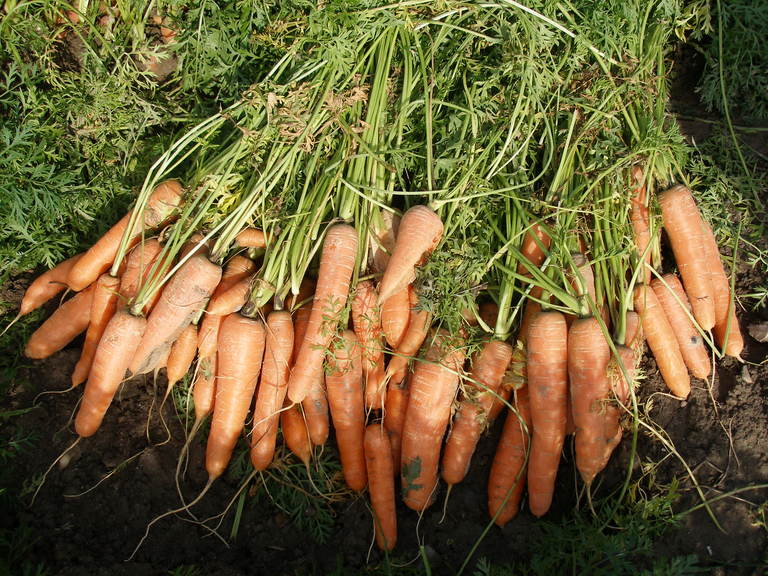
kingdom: Plantae
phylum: Tracheophyta
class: Magnoliopsida
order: Apiales
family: Apiaceae
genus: Daucus
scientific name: Daucus carota
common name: Wild carrot
